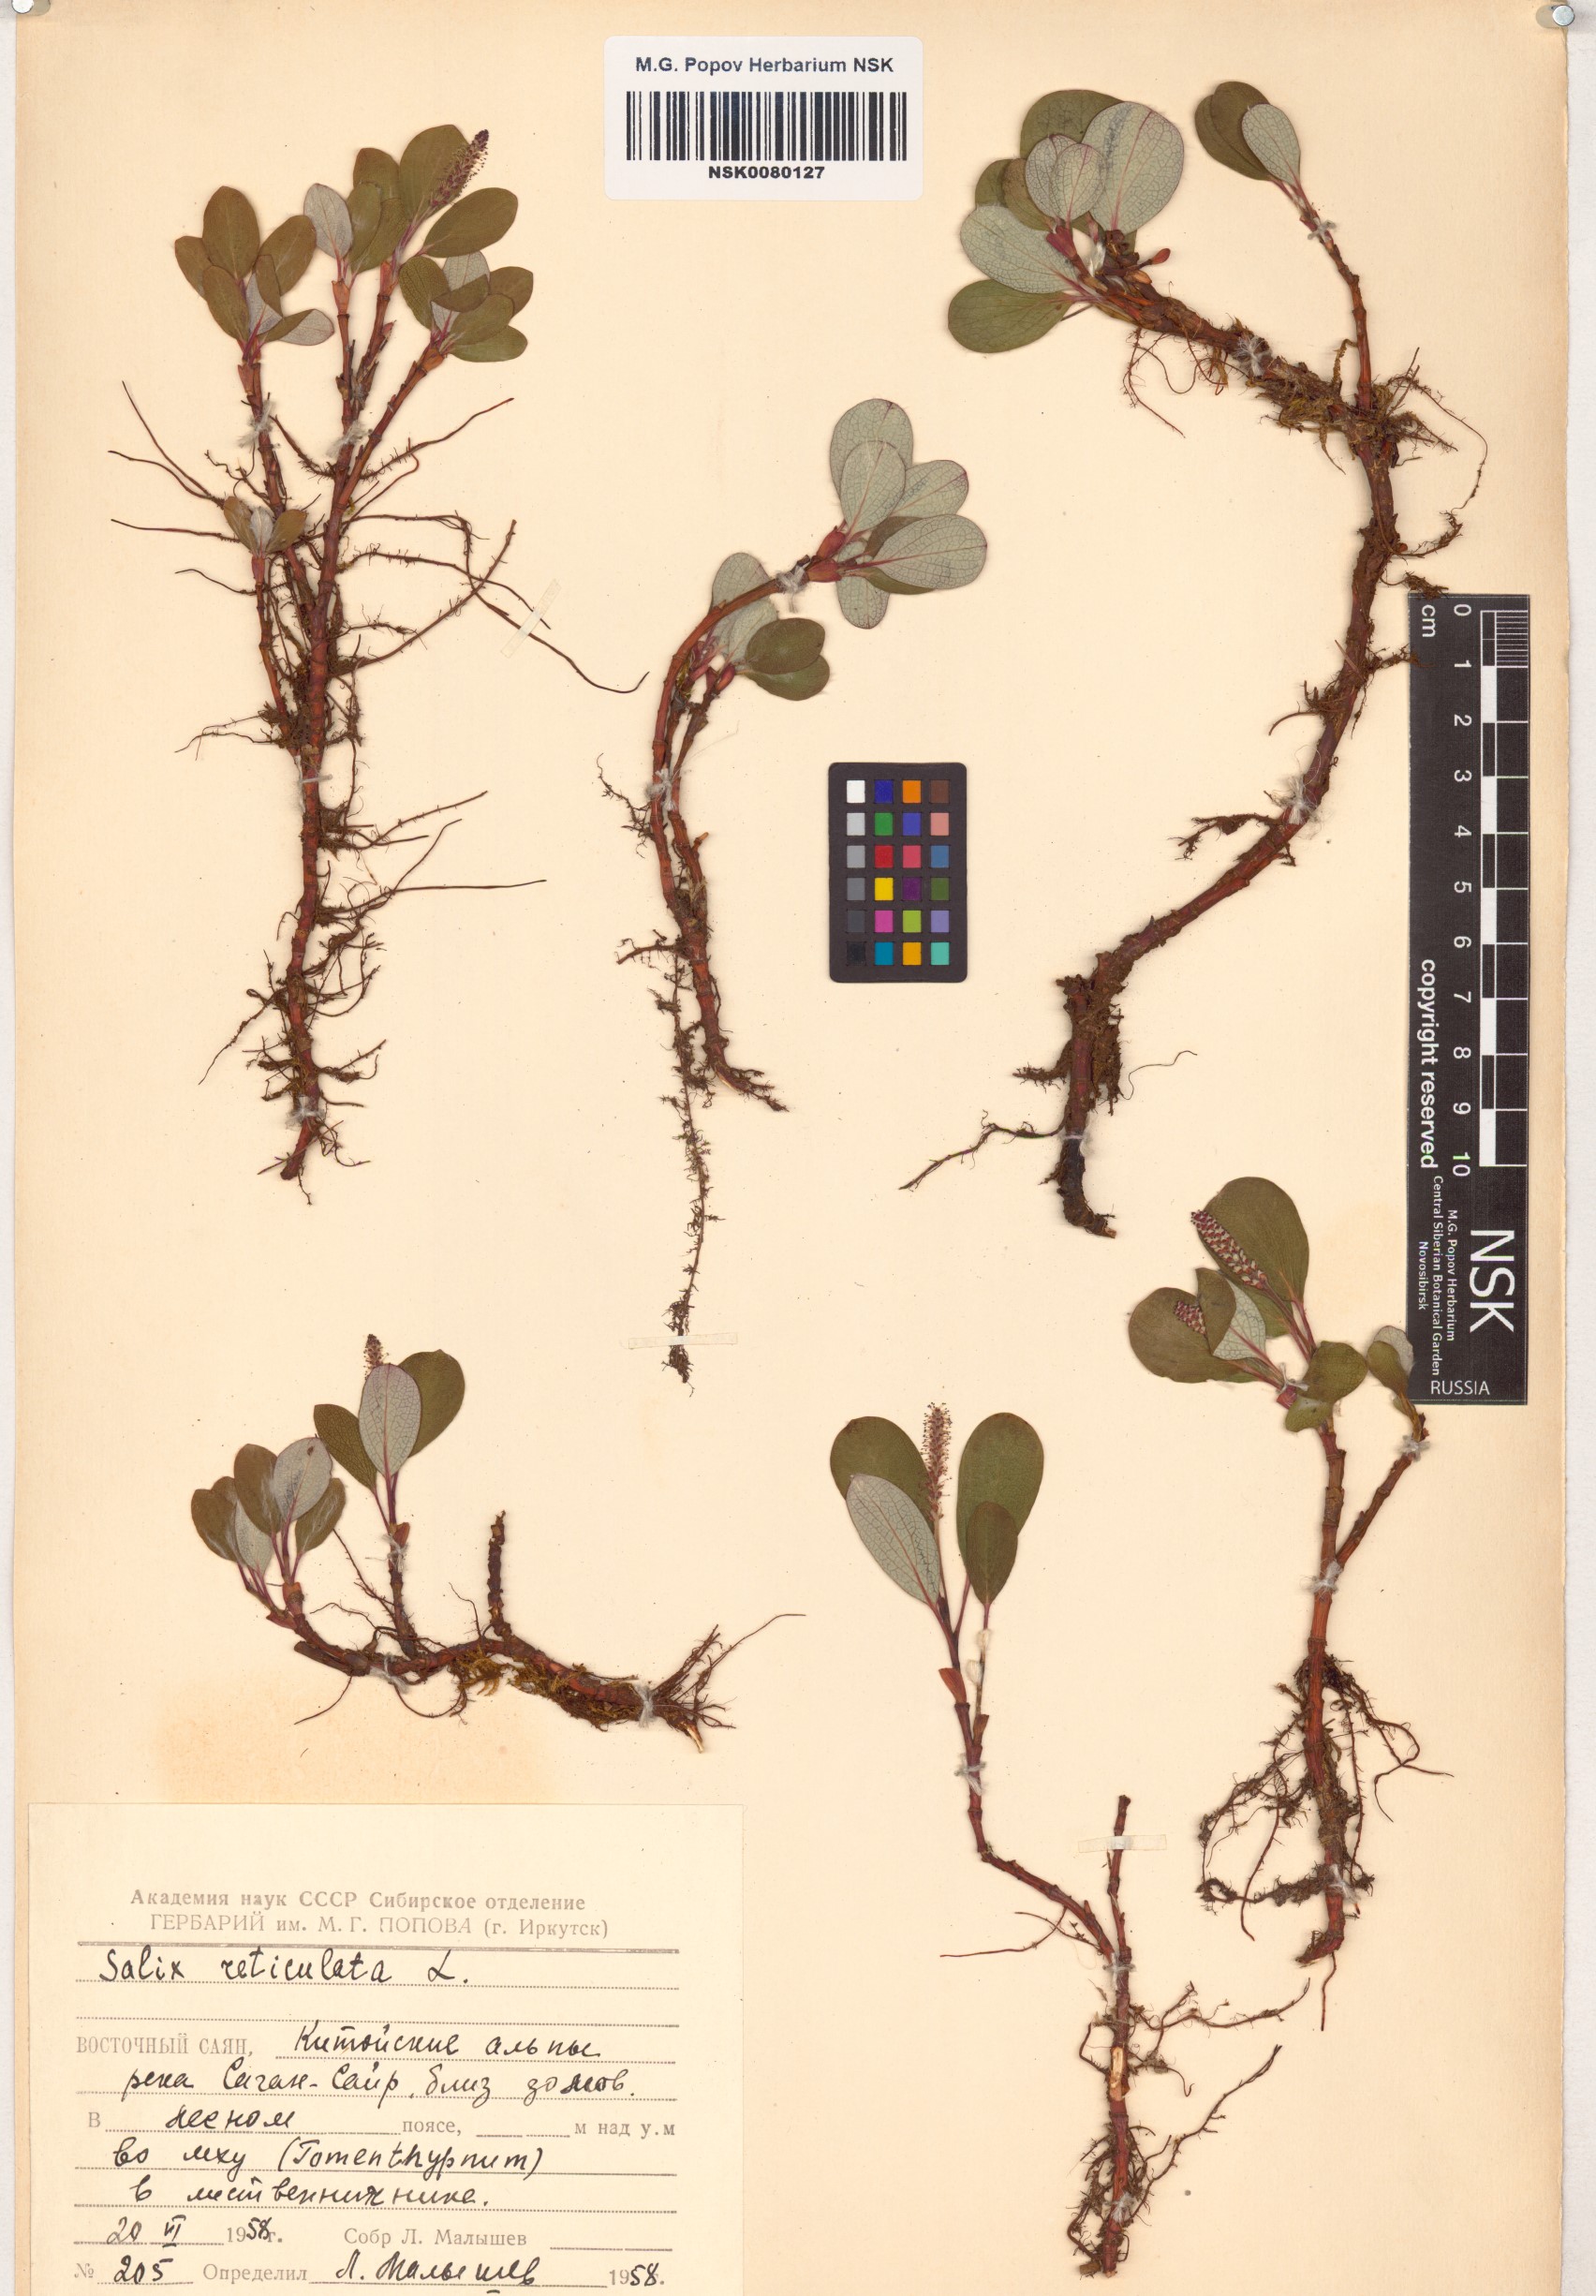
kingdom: Plantae
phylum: Tracheophyta
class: Magnoliopsida
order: Malpighiales
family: Salicaceae
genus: Salix
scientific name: Salix reticulata
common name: Net-leaved willow
